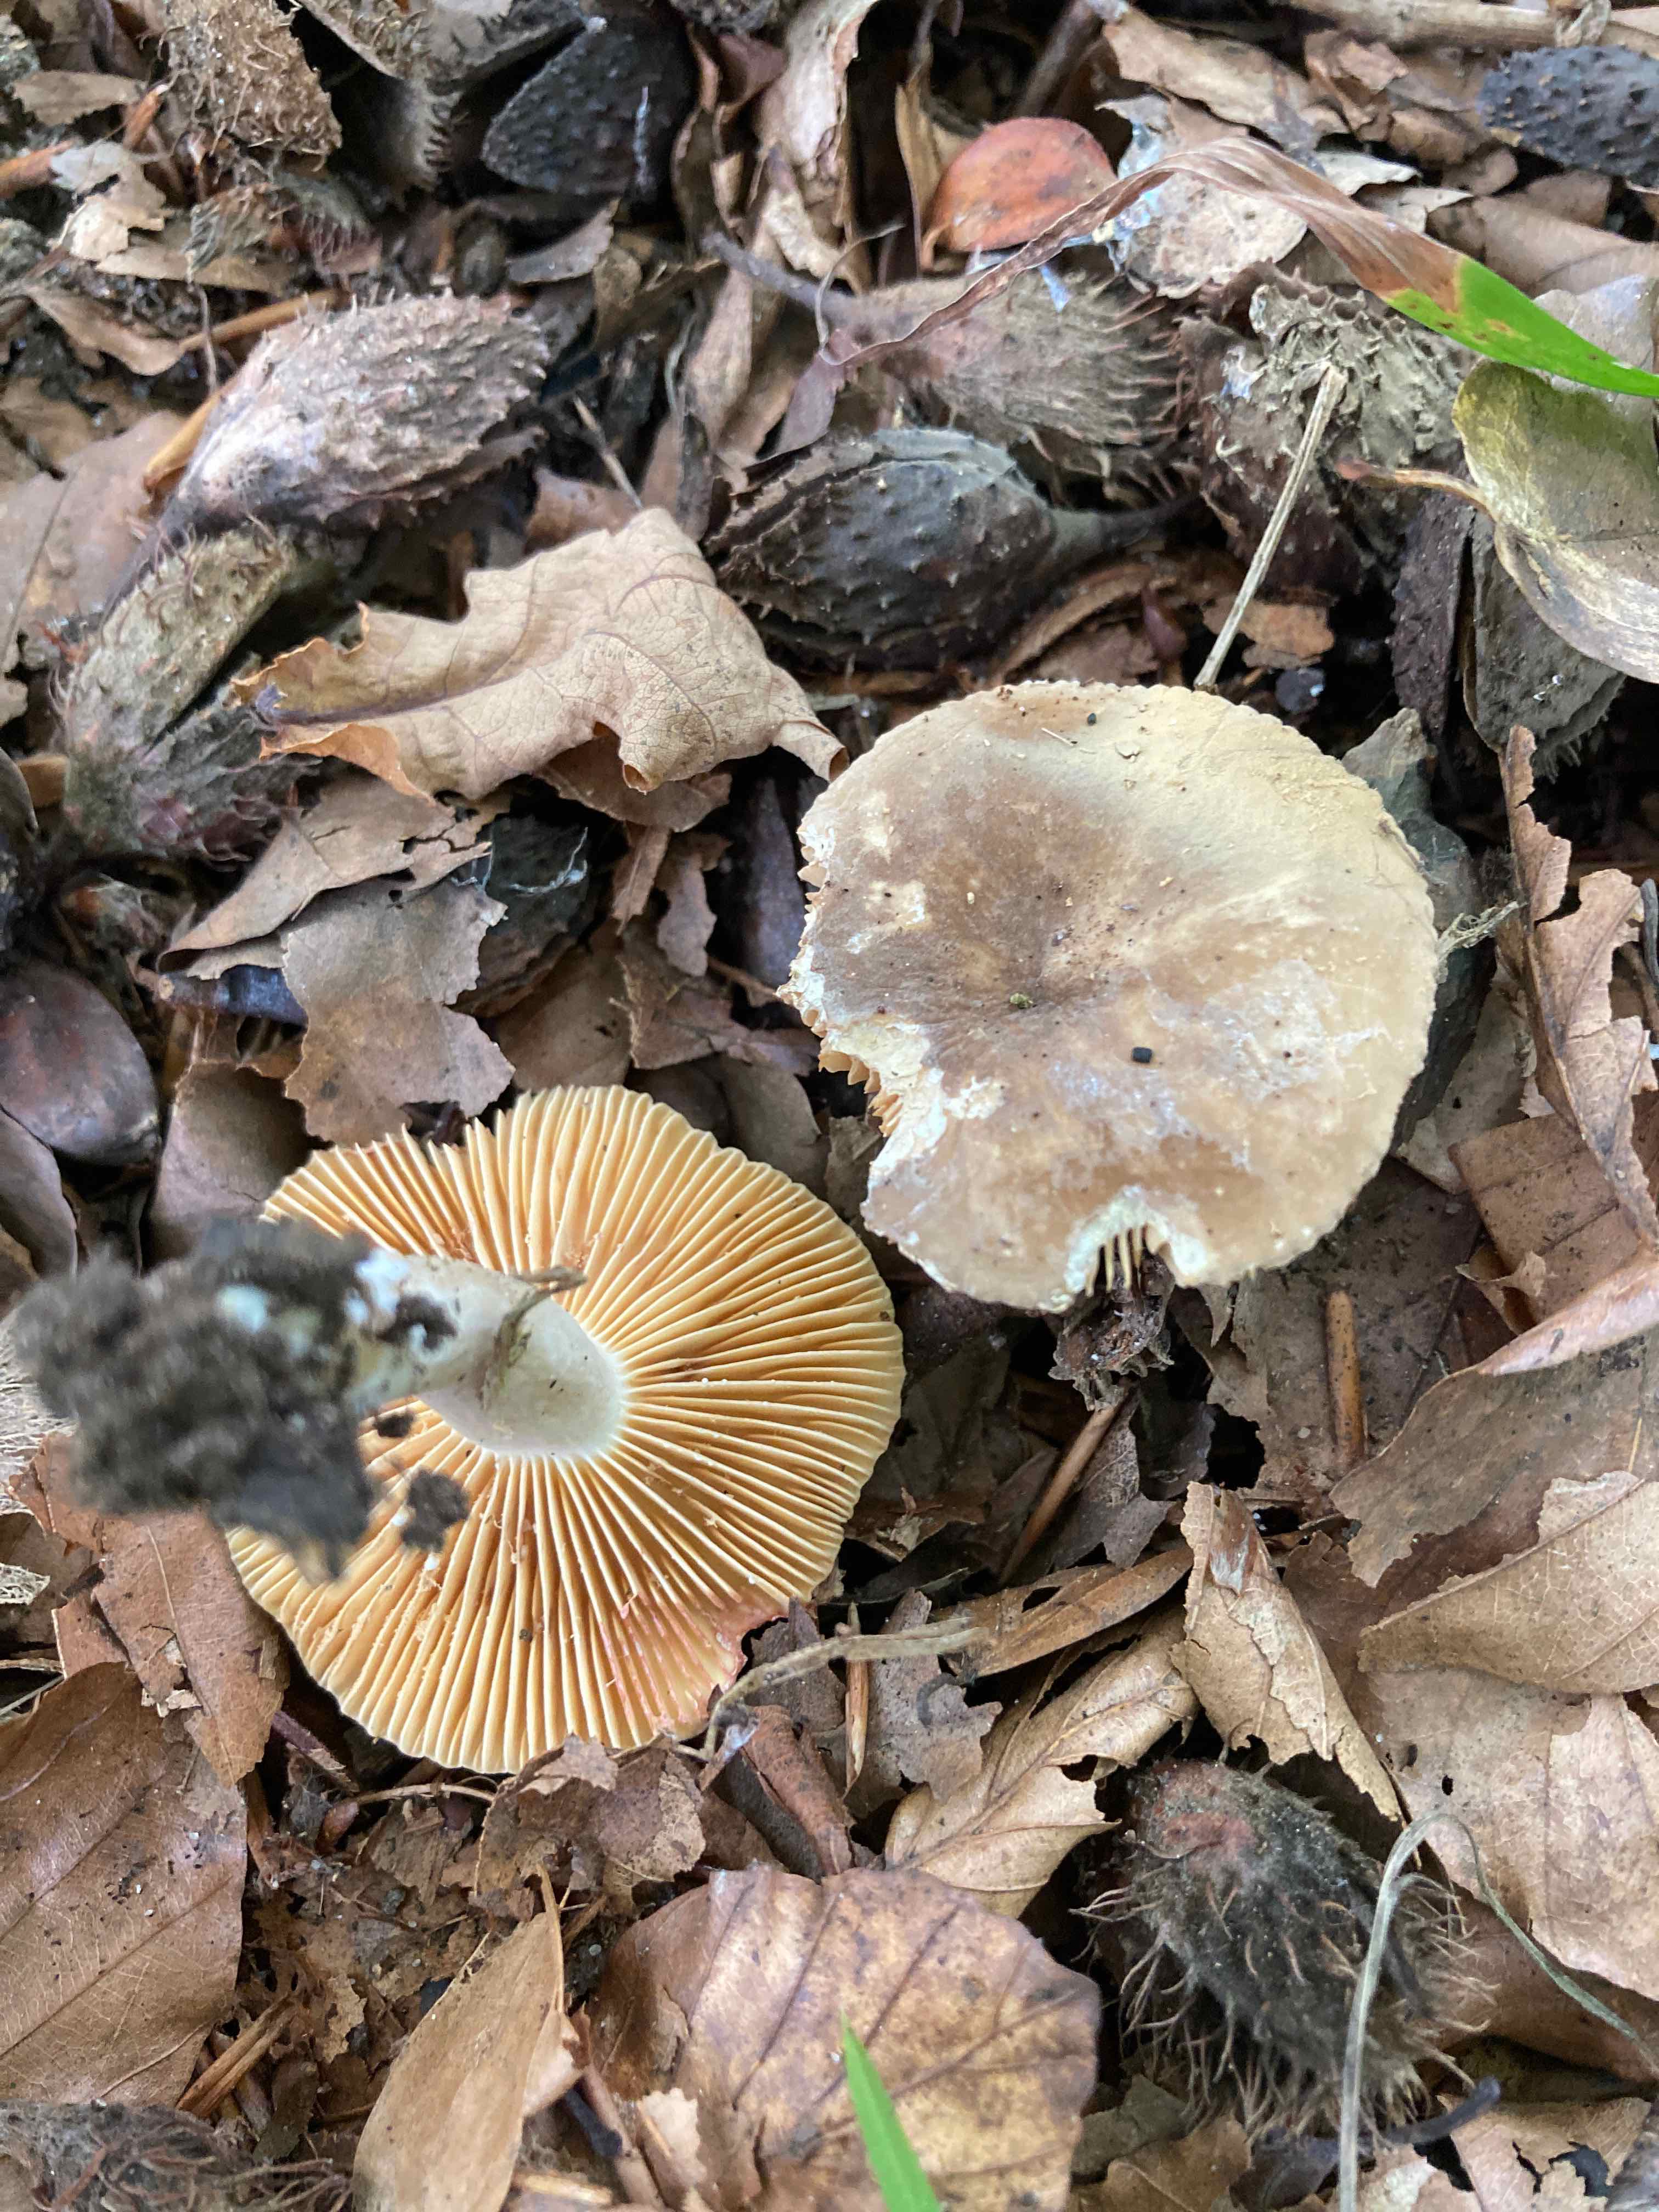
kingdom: Fungi
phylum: Basidiomycota
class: Agaricomycetes
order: Russulales
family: Russulaceae
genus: Lactarius
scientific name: Lactarius pterosporus
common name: vingesporet mælkehat
